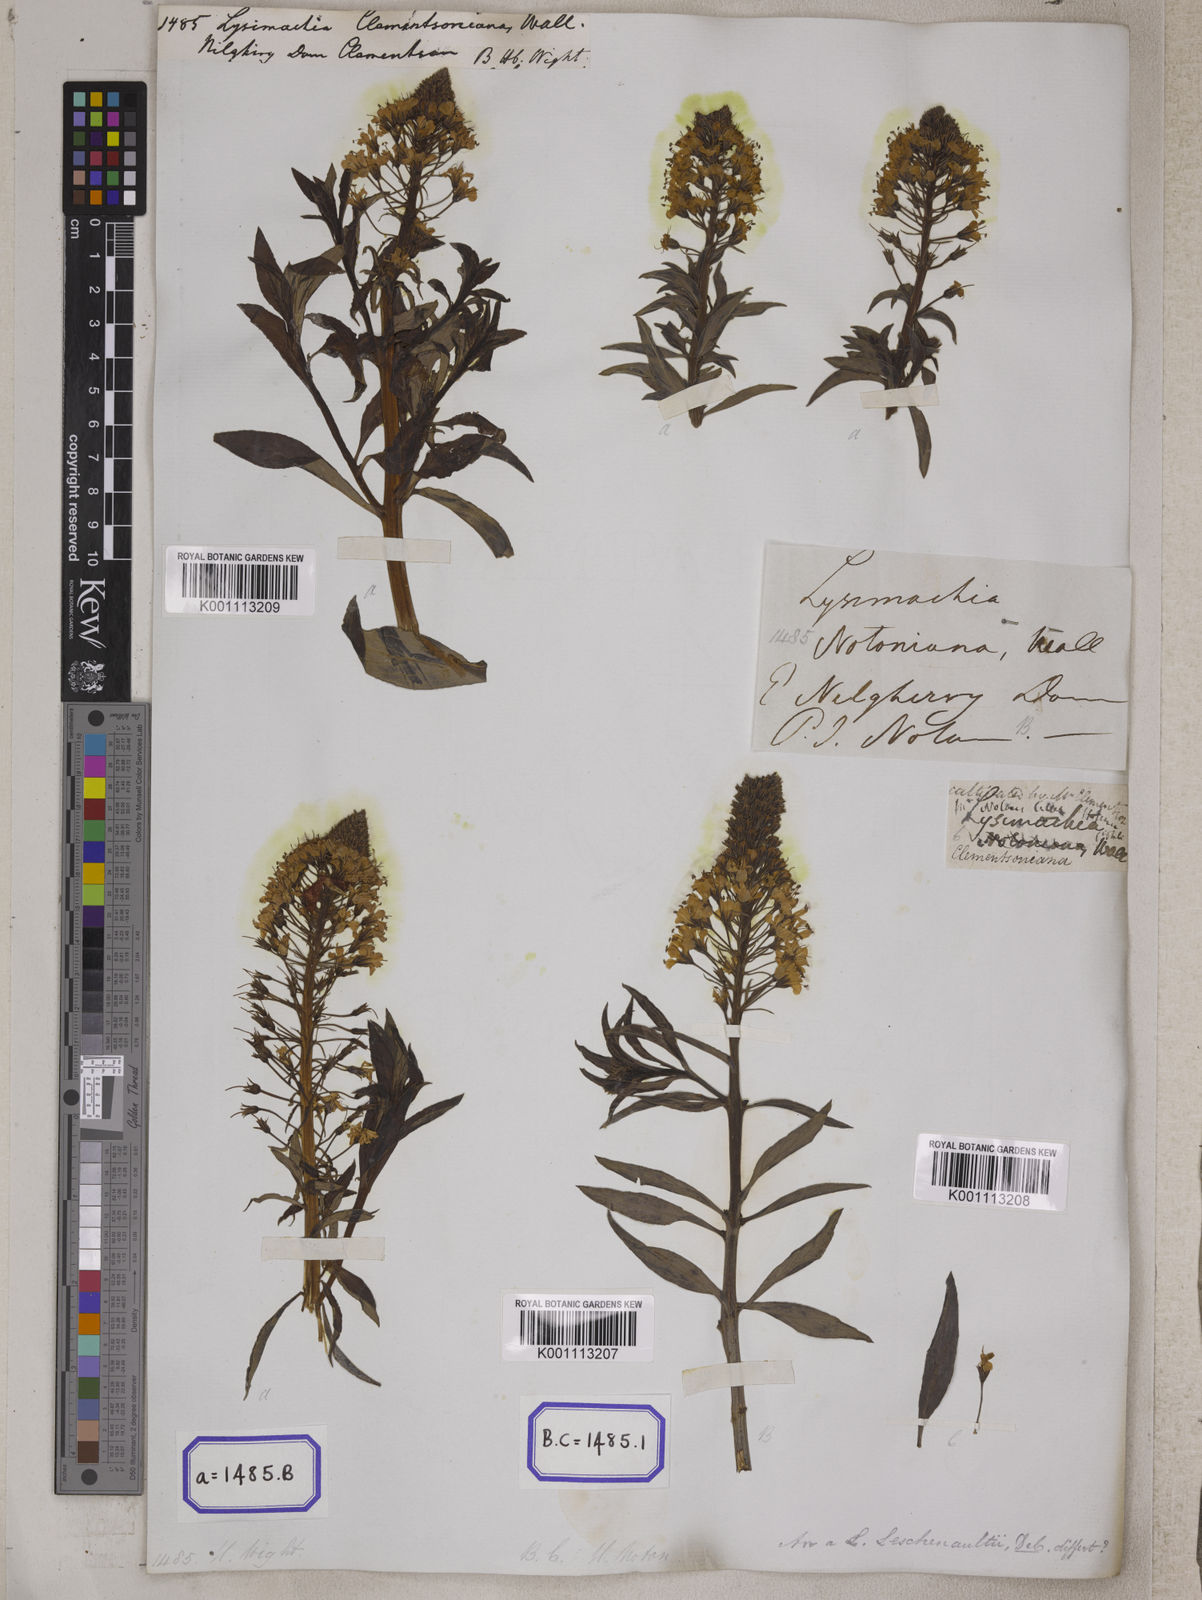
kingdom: Plantae
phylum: Tracheophyta
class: Magnoliopsida
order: Ericales
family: Primulaceae
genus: Lysimachia
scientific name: Lysimachia leschenaultii
